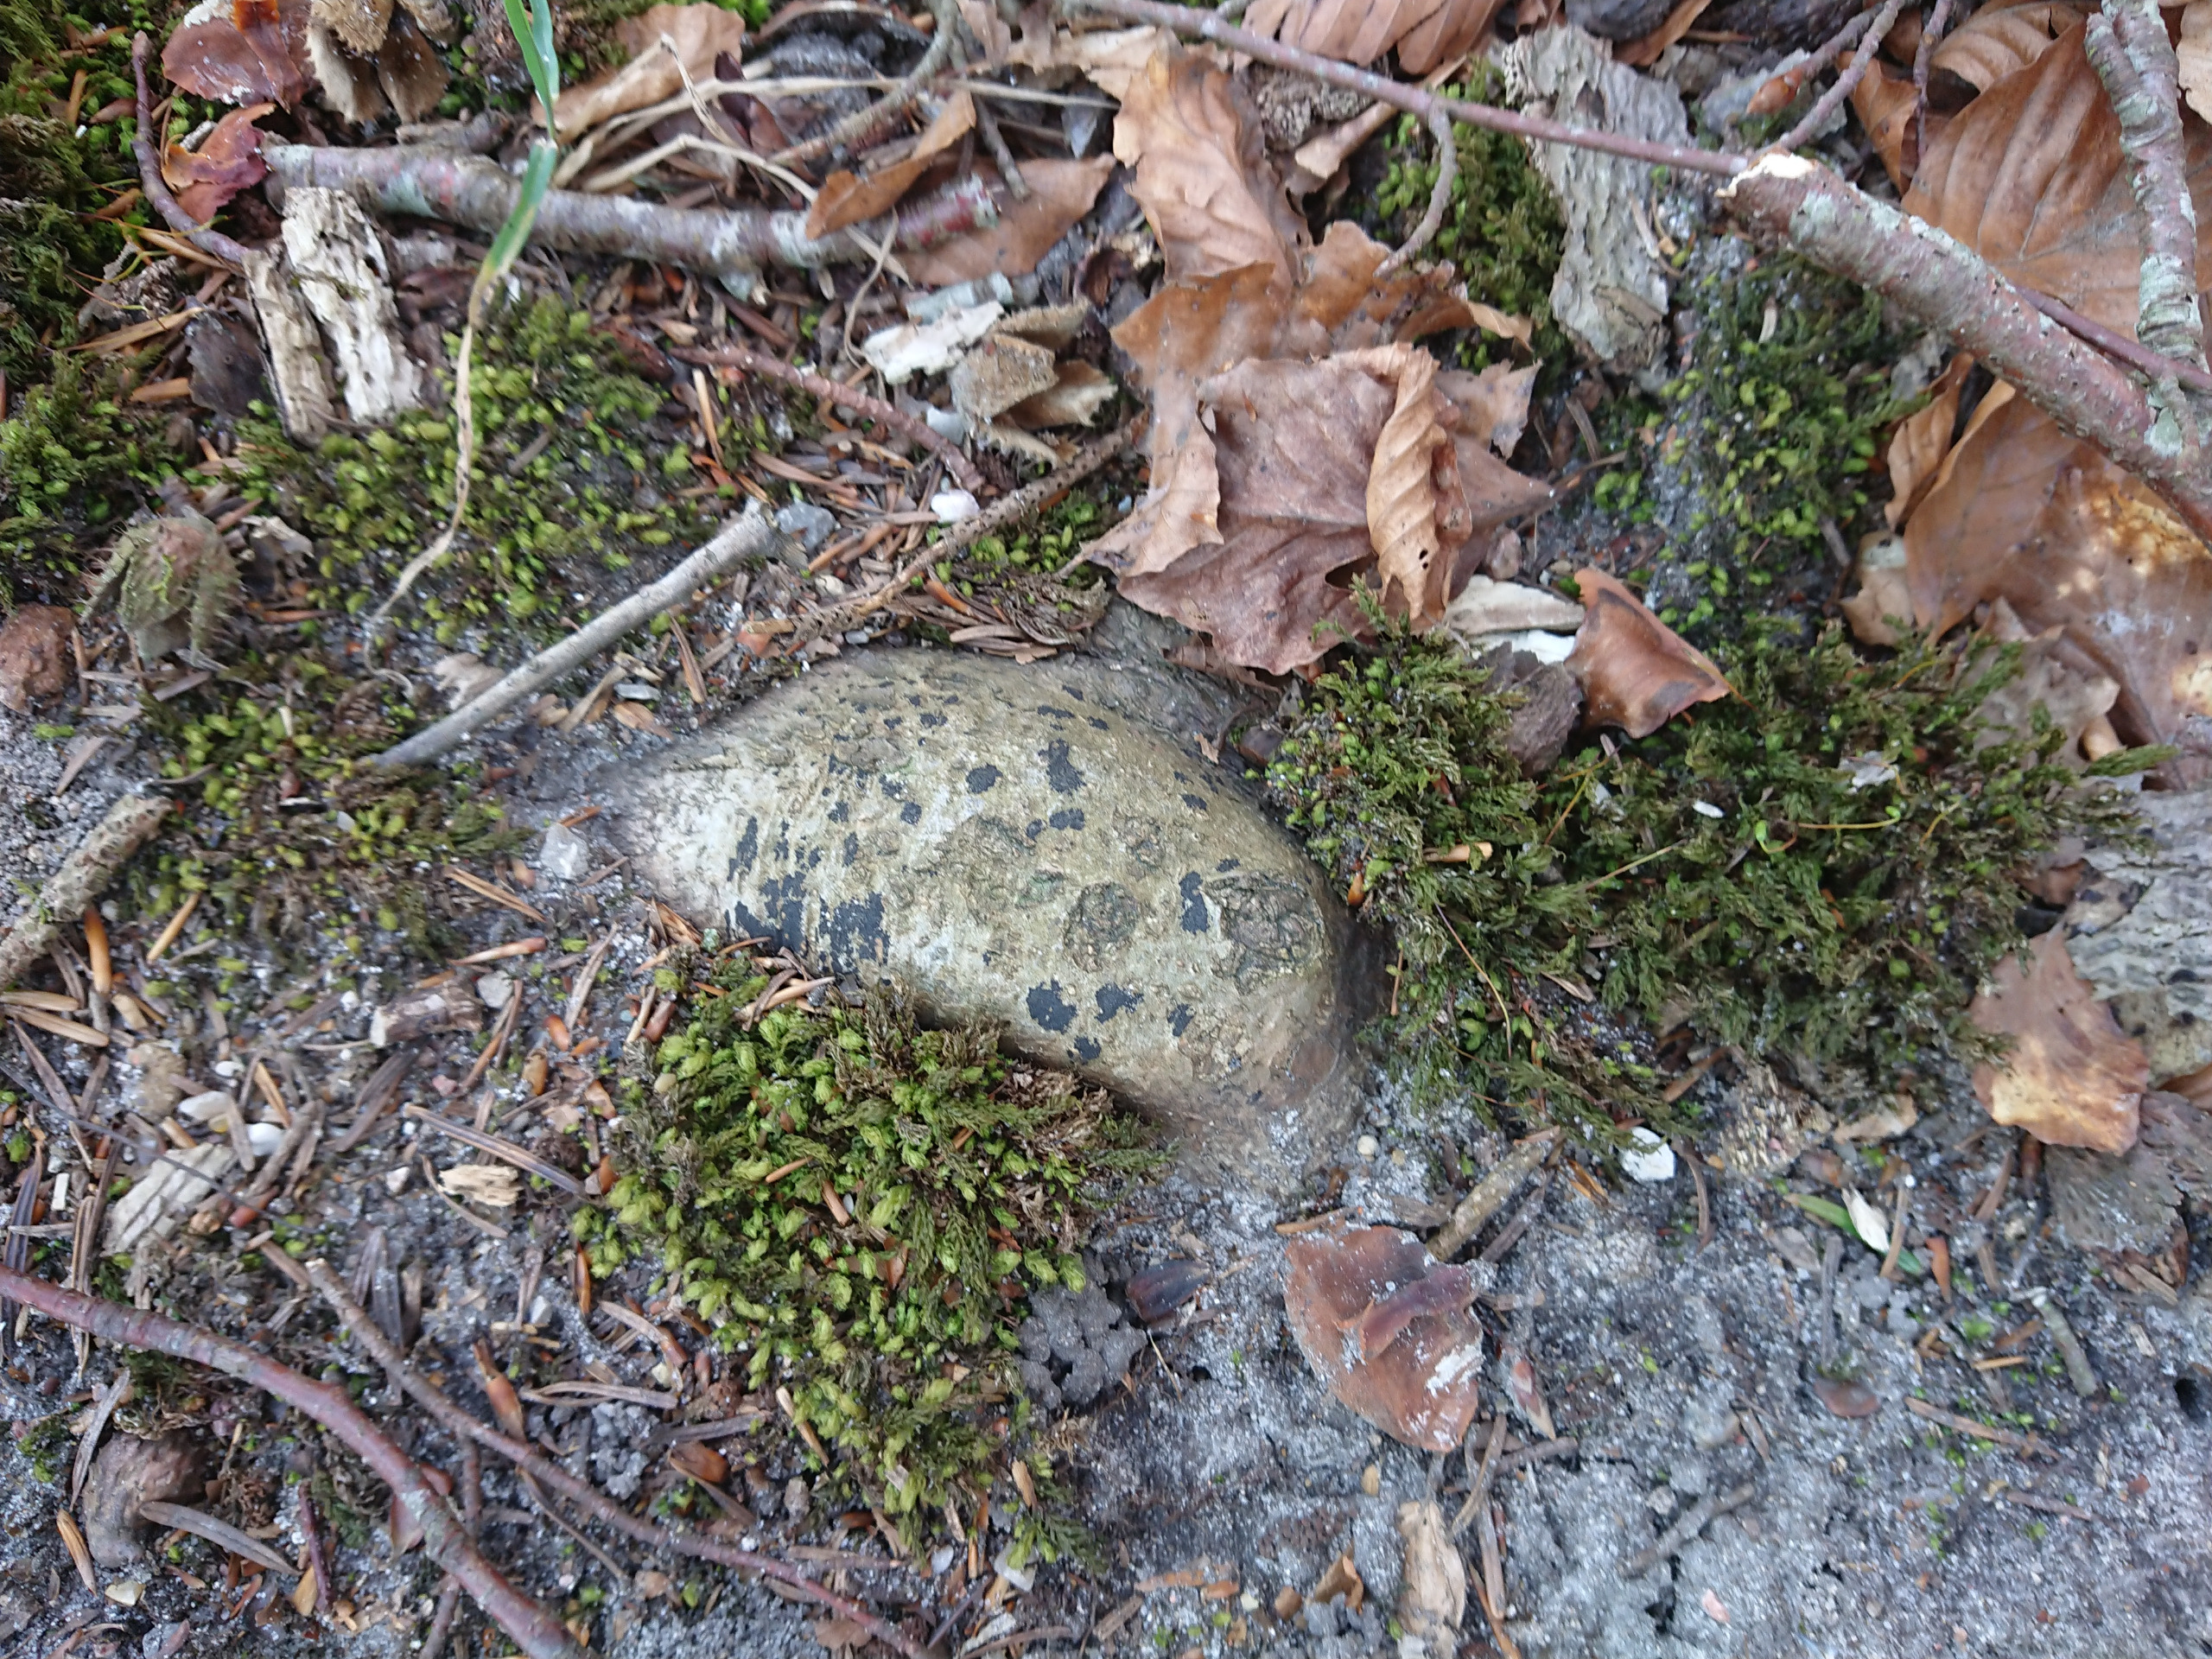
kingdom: Plantae
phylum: Bryophyta
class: Bryopsida
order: Bryales
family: Mniaceae
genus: Mnium
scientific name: Mnium hornum
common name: Brunfiltet stjernemos
